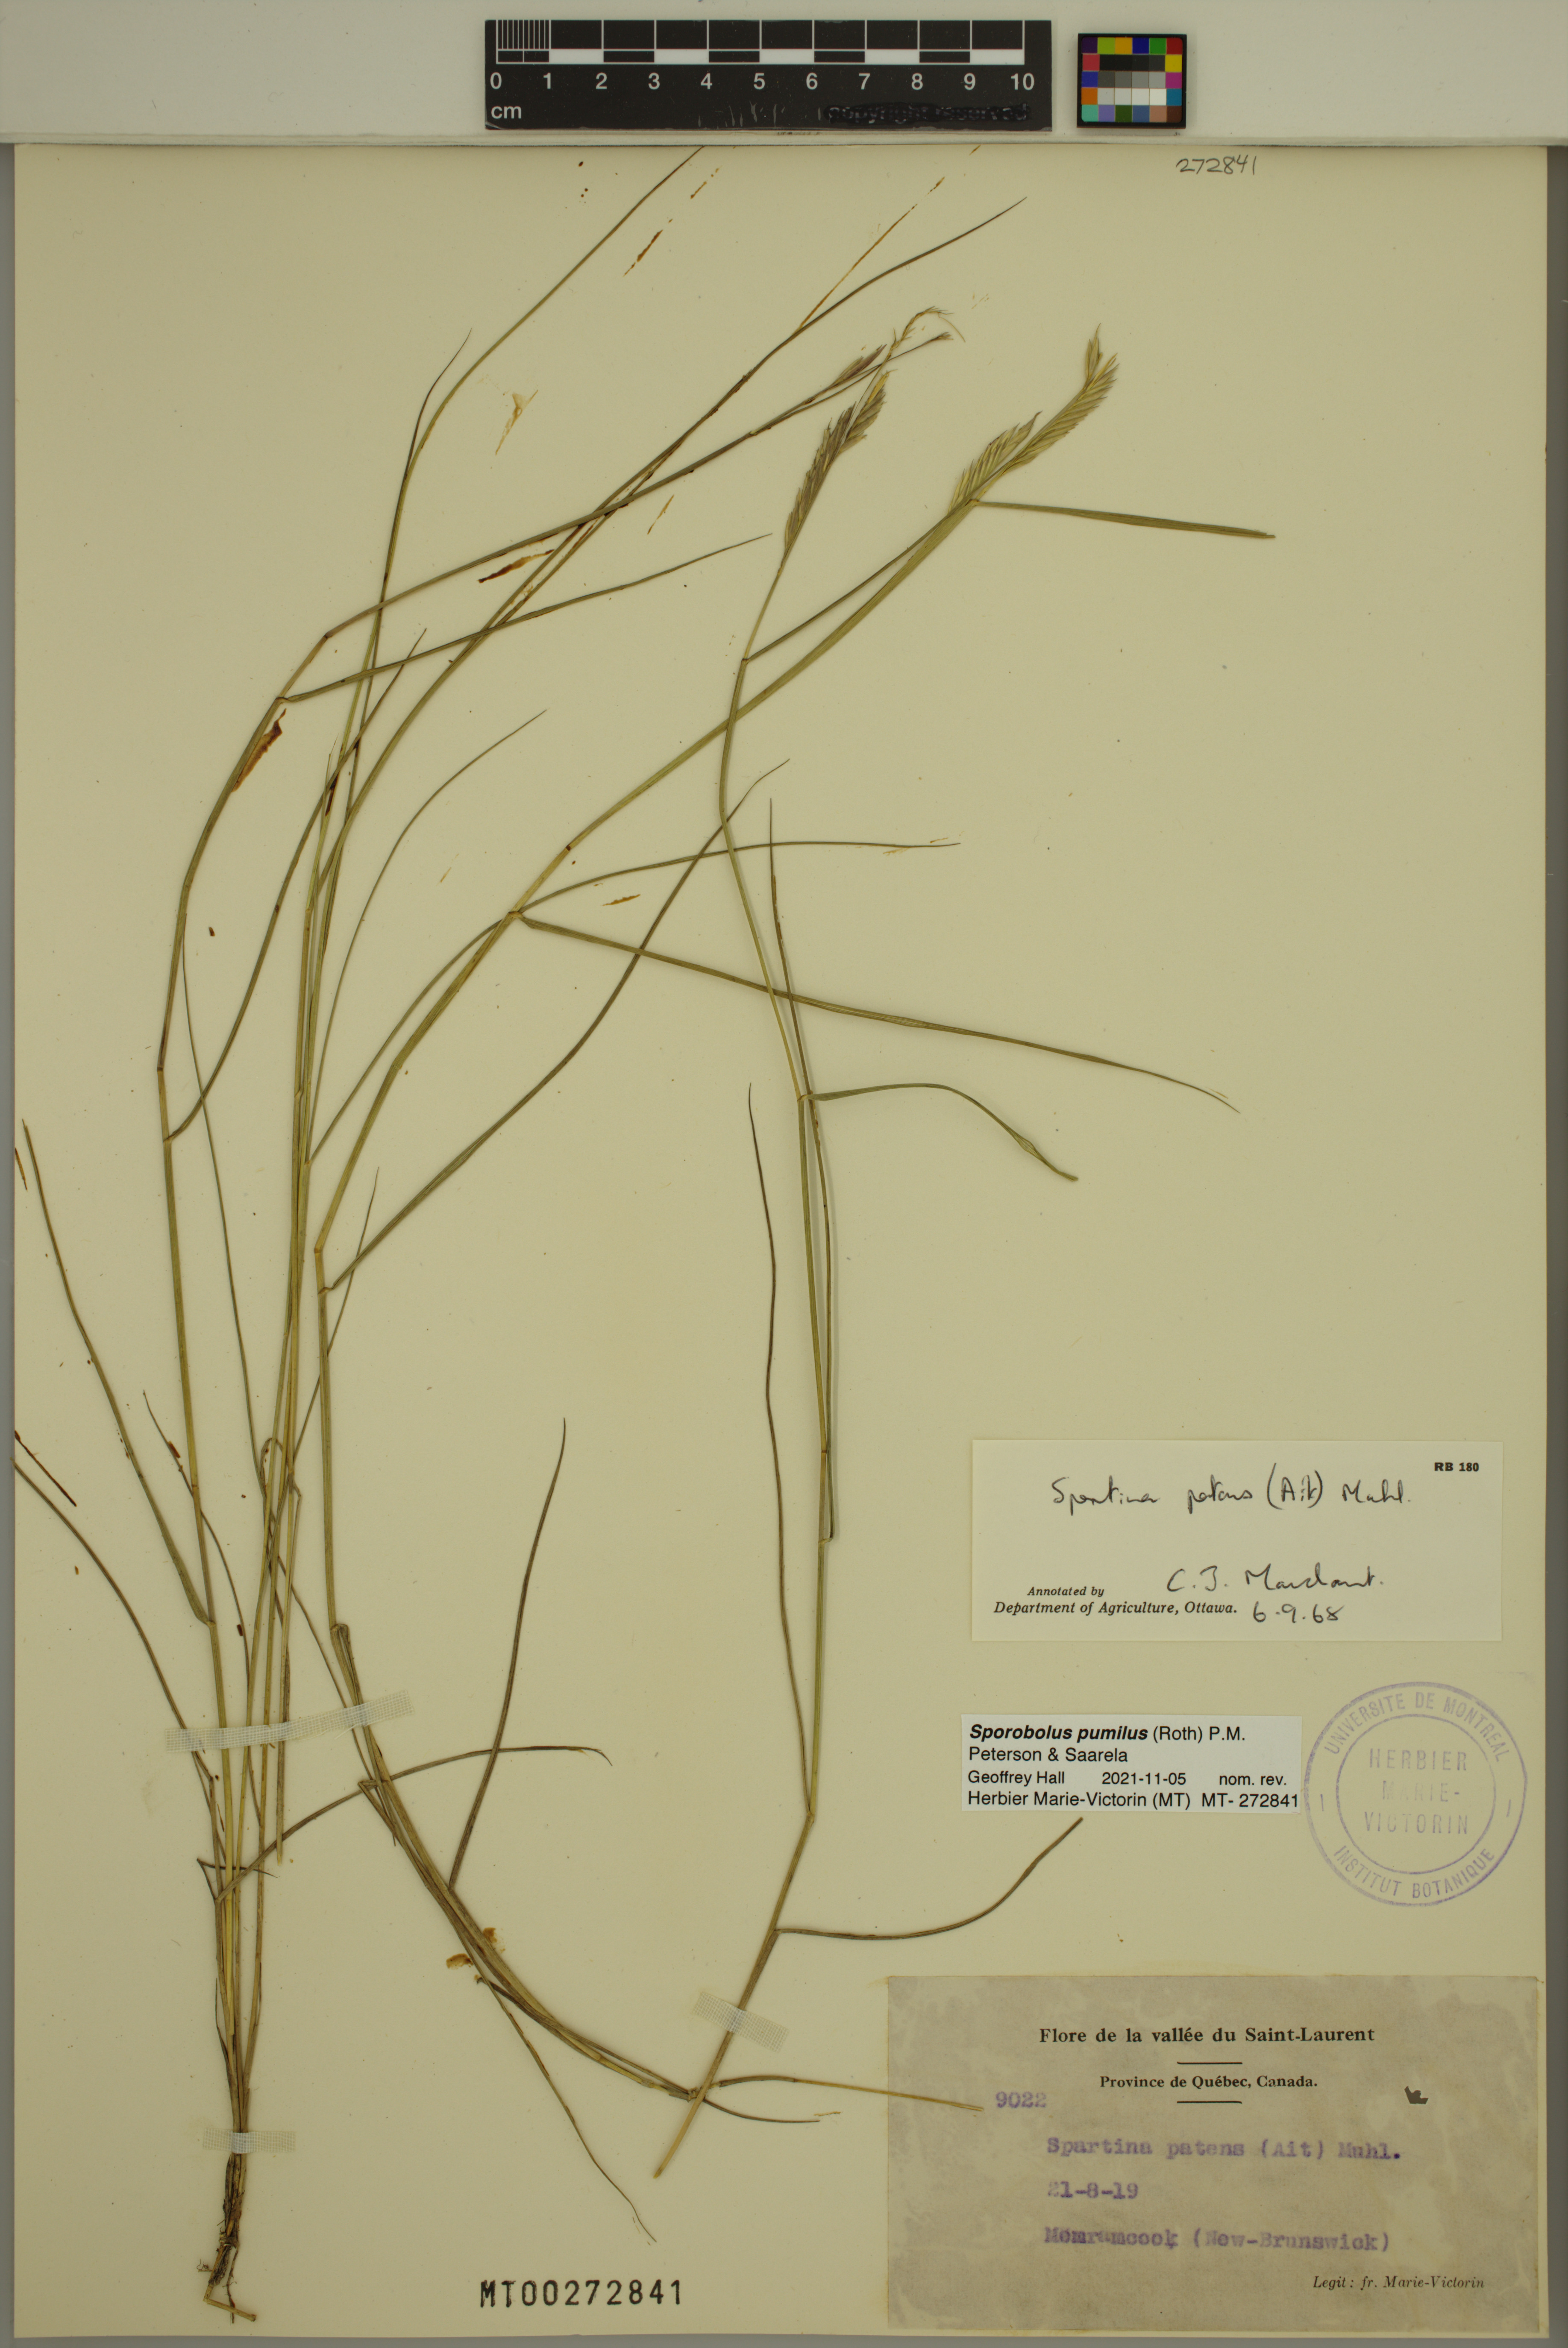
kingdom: Plantae
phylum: Tracheophyta
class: Liliopsida
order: Poales
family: Poaceae
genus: Sporobolus
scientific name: Sporobolus pumilus
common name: Highwater grass
